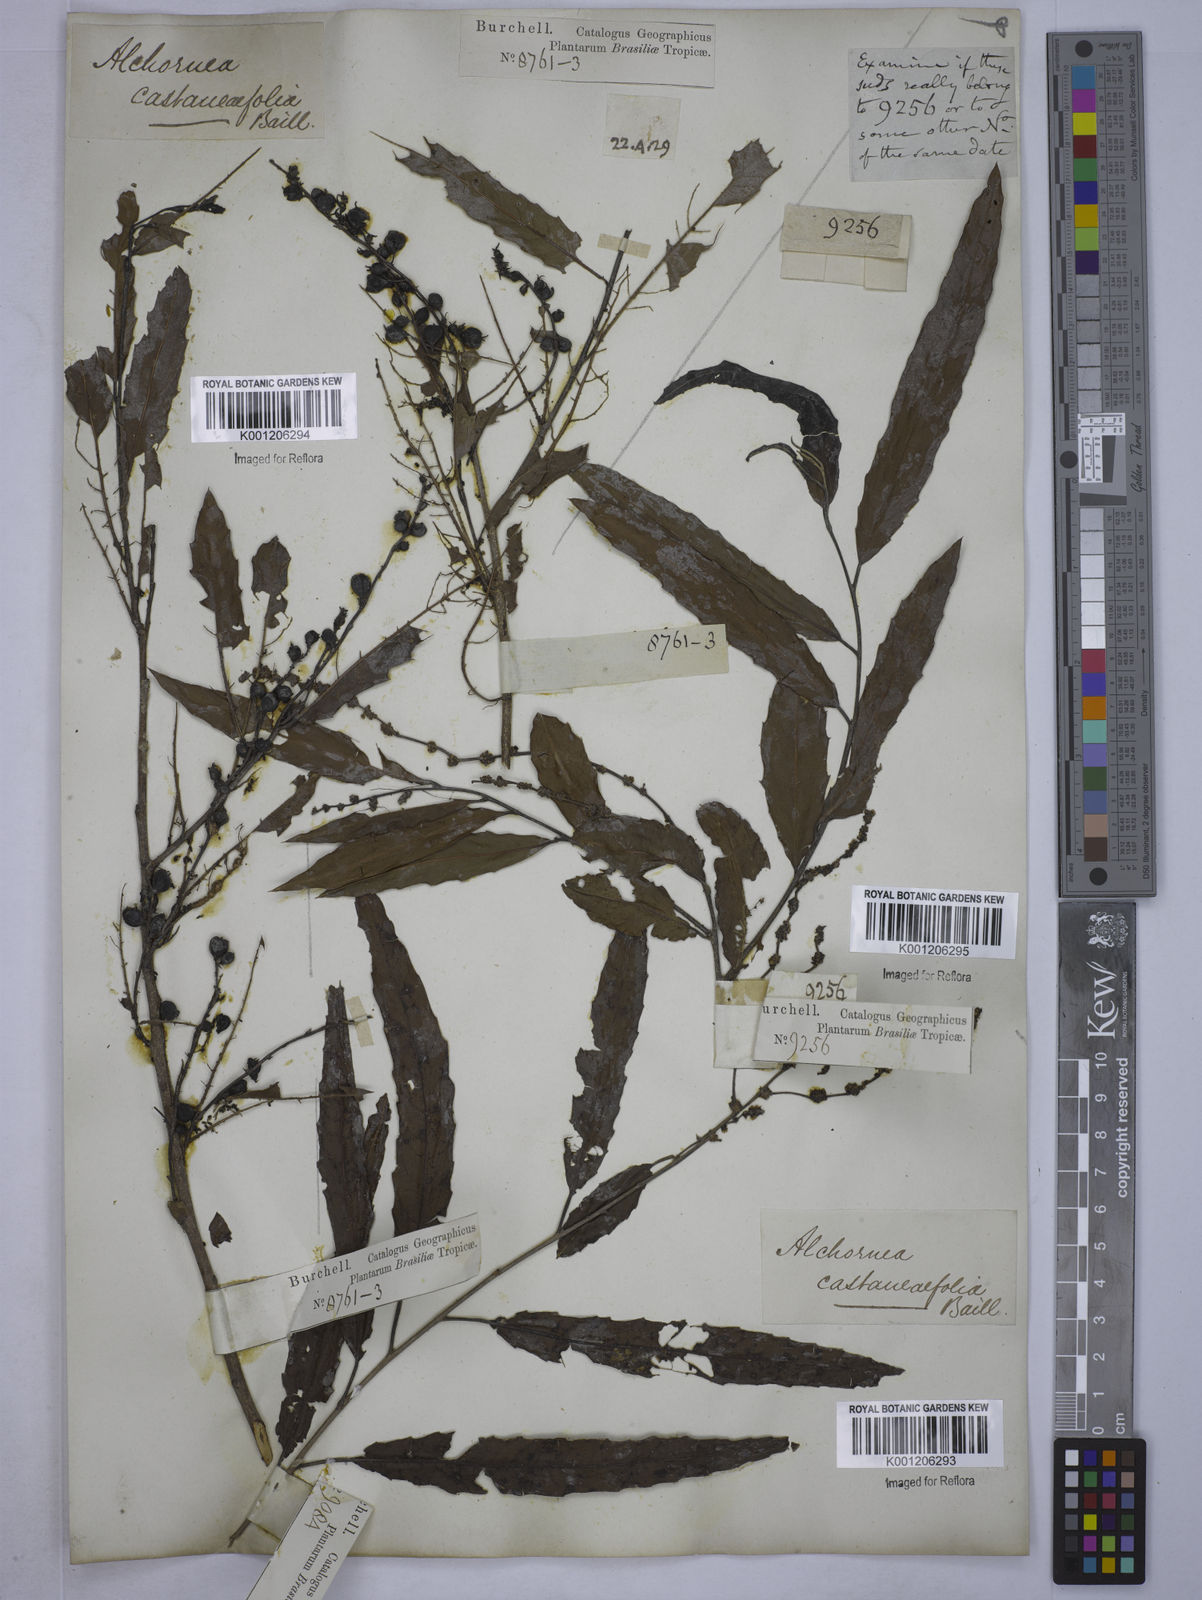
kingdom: Plantae
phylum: Tracheophyta
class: Magnoliopsida
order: Malpighiales
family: Euphorbiaceae
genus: Alchornea
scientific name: Alchornea castaneifolia
